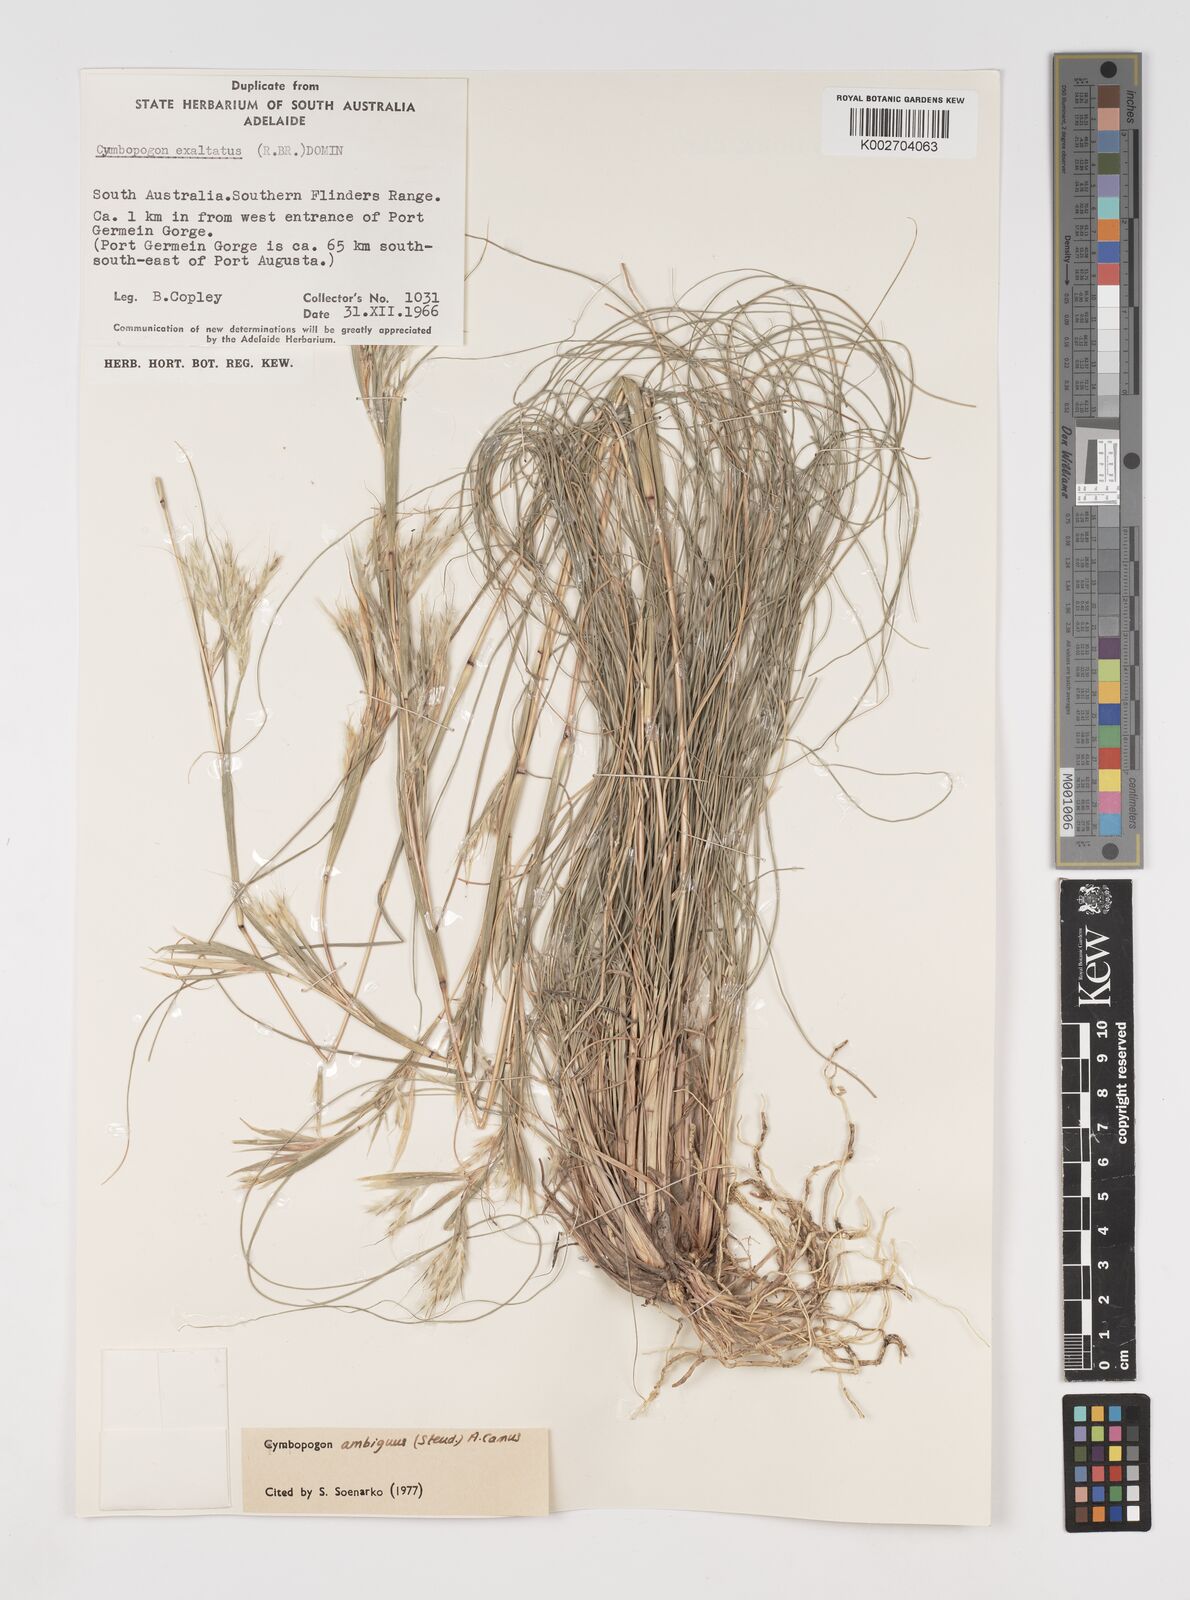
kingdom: Plantae
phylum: Tracheophyta
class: Liliopsida
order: Poales
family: Poaceae
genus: Cymbopogon
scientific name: Cymbopogon ambiguus
